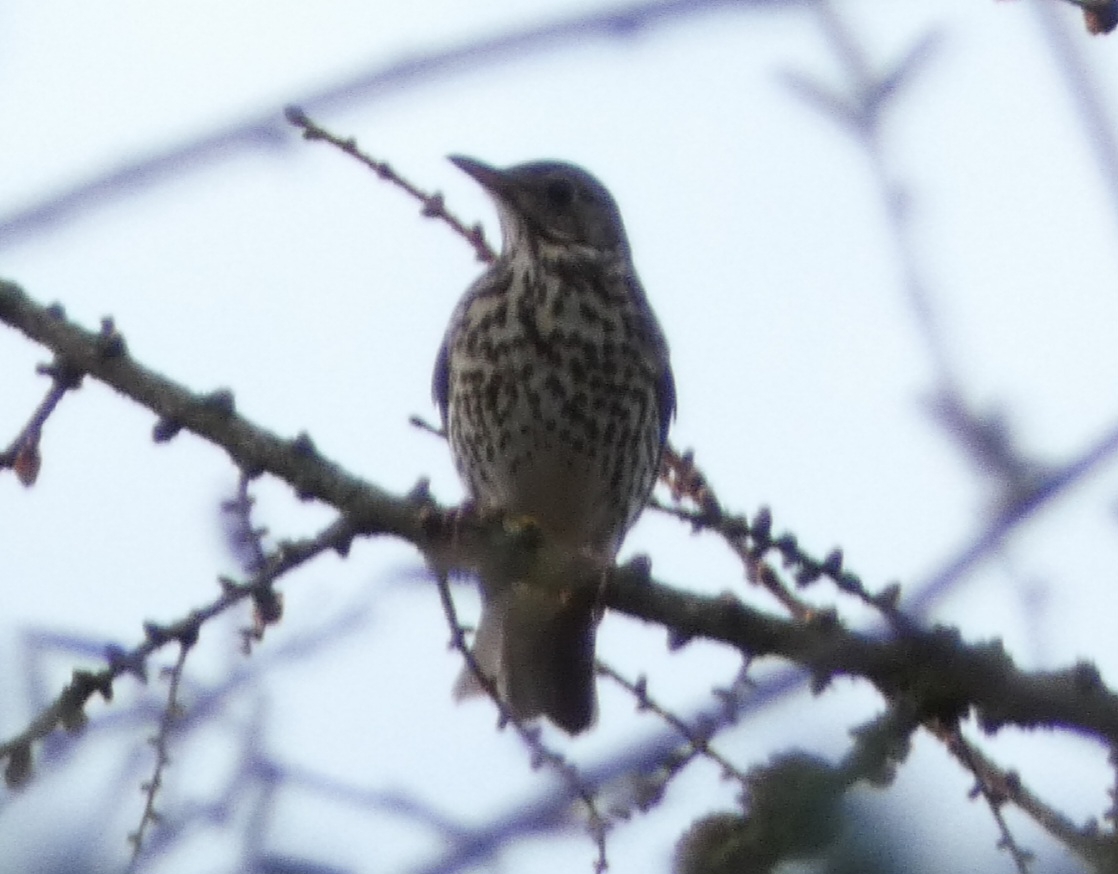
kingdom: Animalia
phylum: Chordata
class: Aves
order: Passeriformes
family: Turdidae
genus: Turdus
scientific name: Turdus philomelos
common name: Sangdrossel
